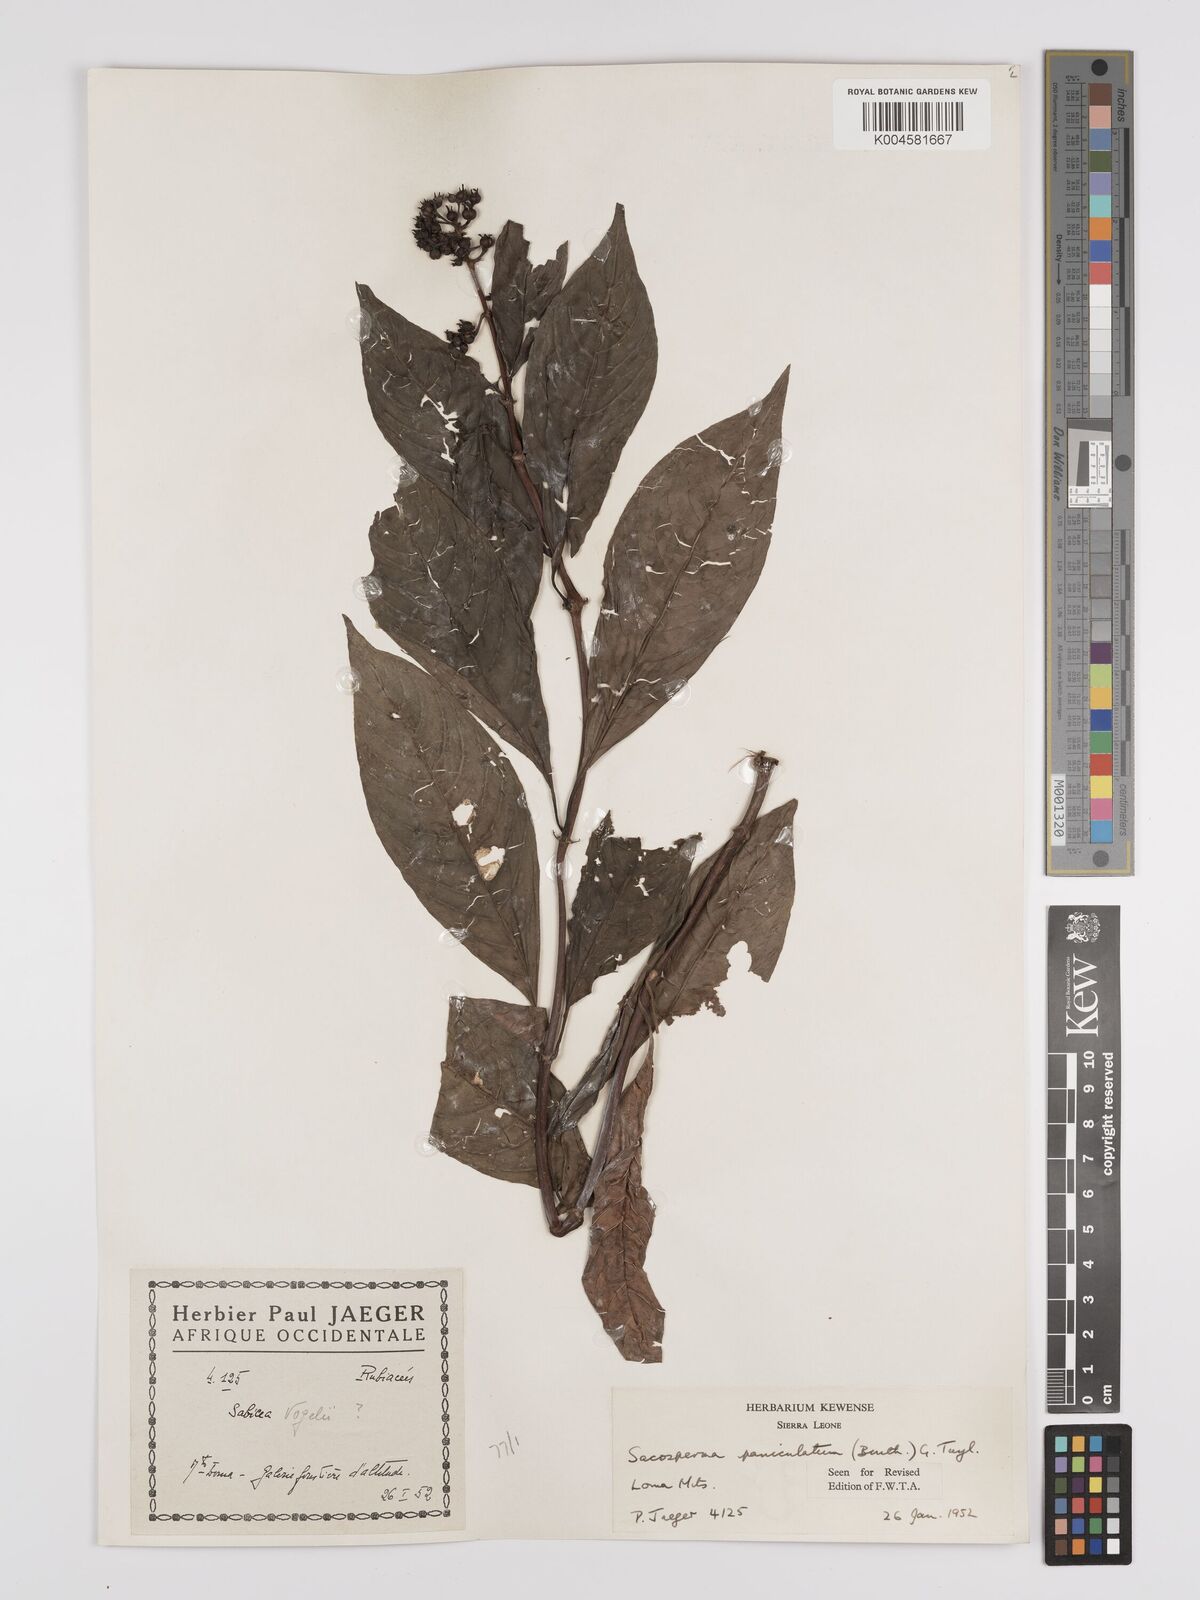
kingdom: Plantae
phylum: Tracheophyta
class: Magnoliopsida
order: Gentianales
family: Rubiaceae
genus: Sacosperma
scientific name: Sacosperma paniculatum
